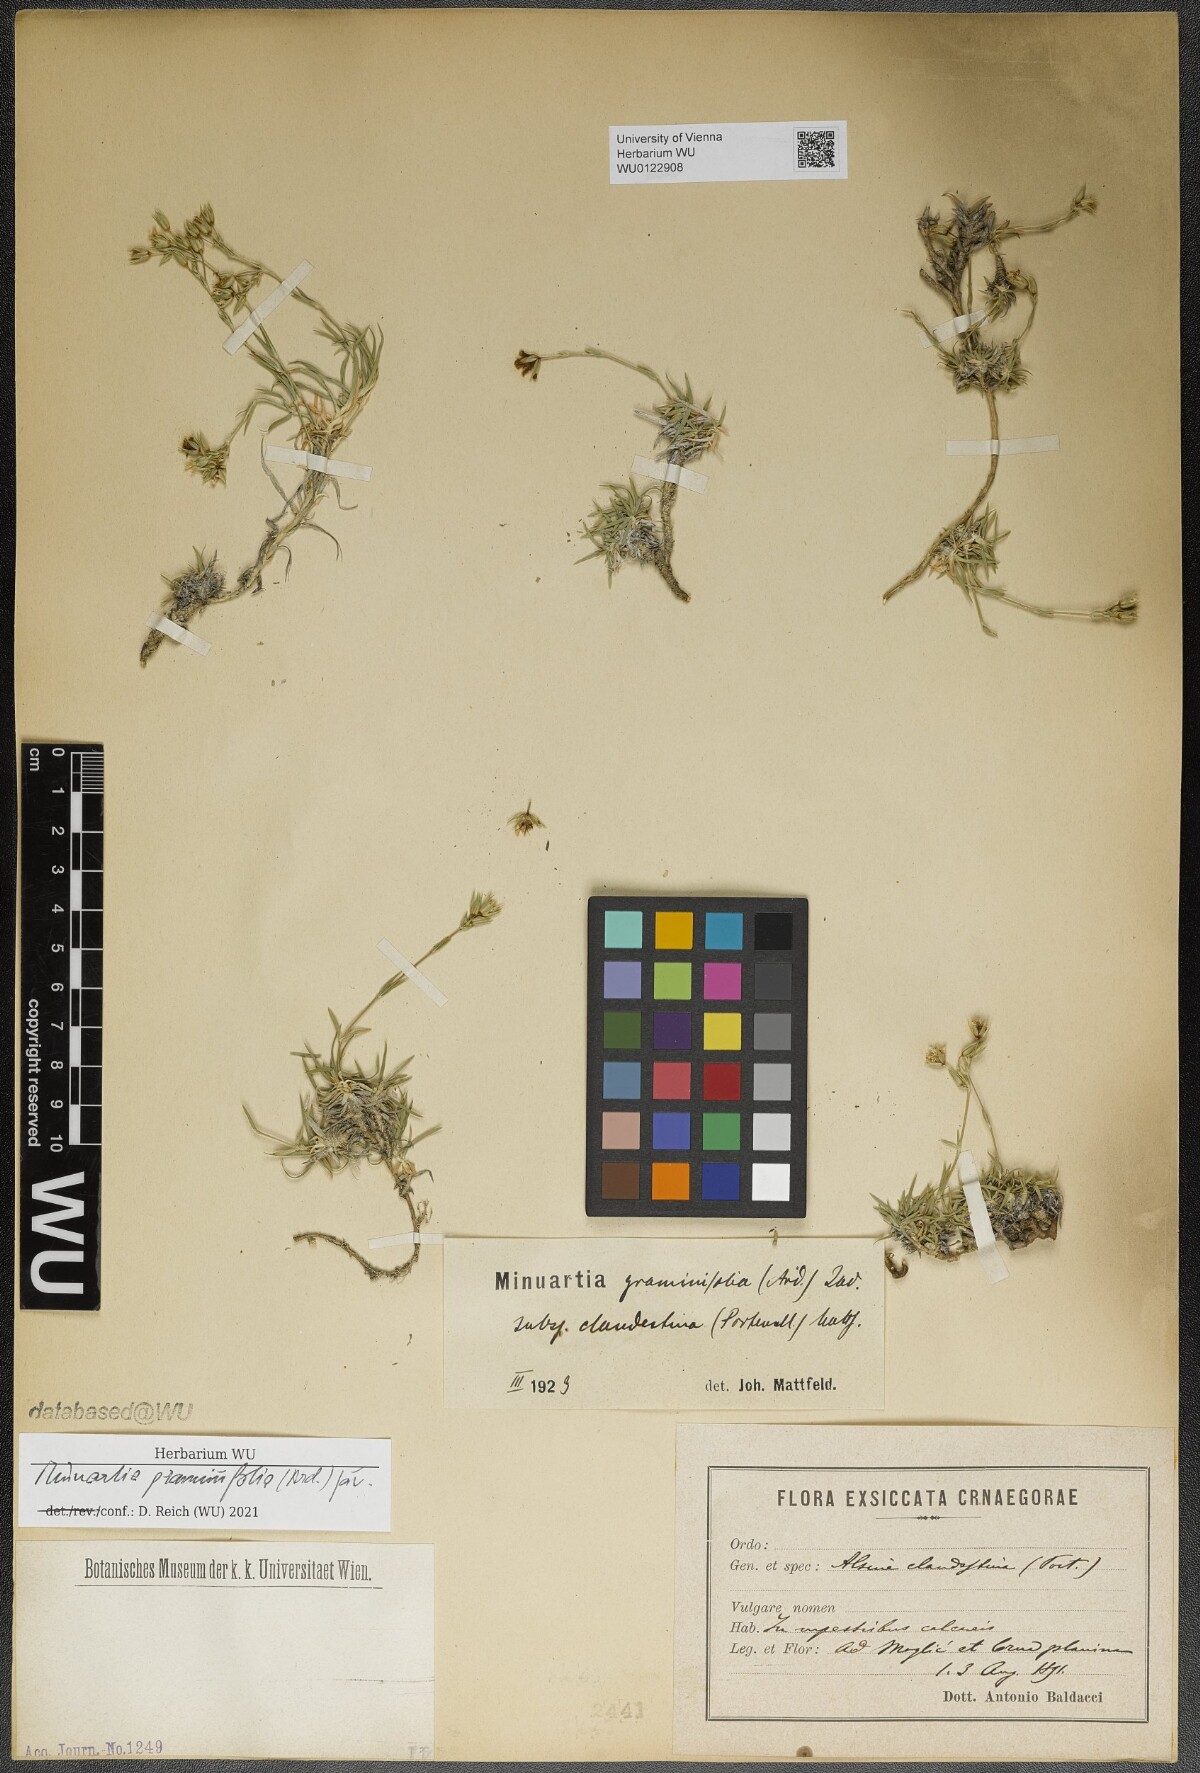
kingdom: Plantae
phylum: Tracheophyta
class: Magnoliopsida
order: Caryophyllales
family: Caryophyllaceae
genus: Mcneillia
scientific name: Mcneillia graminifolia
